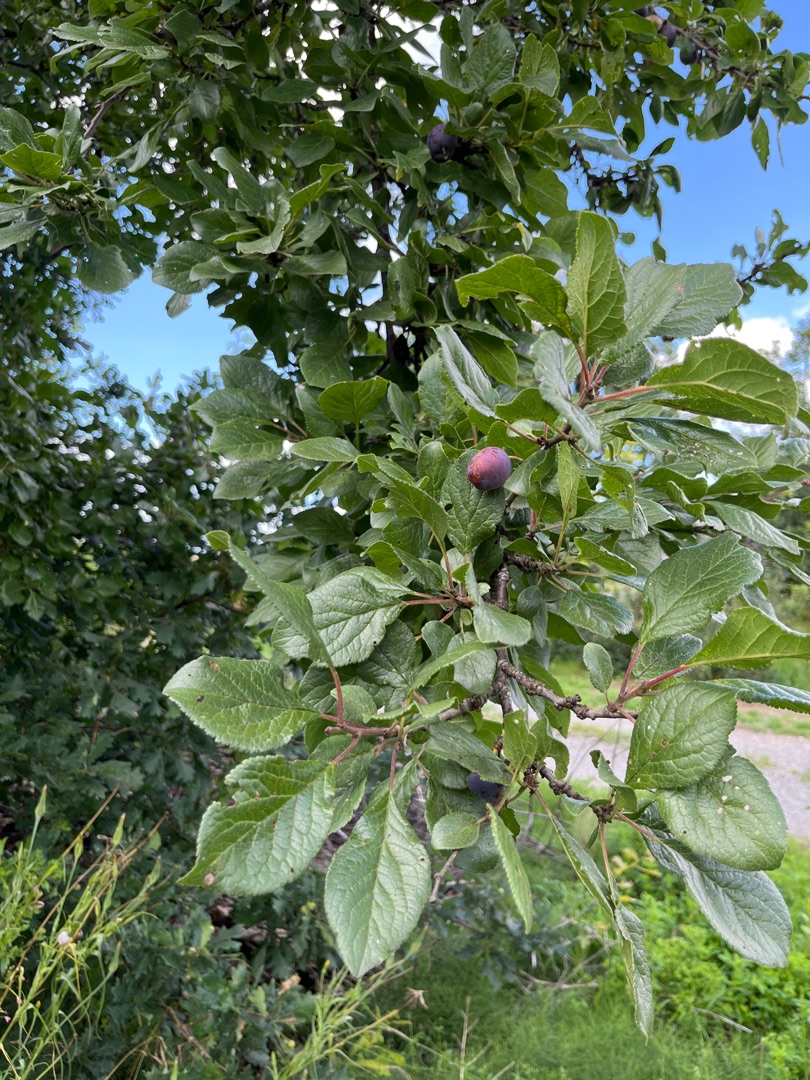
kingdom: Plantae
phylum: Tracheophyta
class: Magnoliopsida
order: Rosales
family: Rosaceae
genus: Prunus
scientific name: Prunus domestica
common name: Blomme
